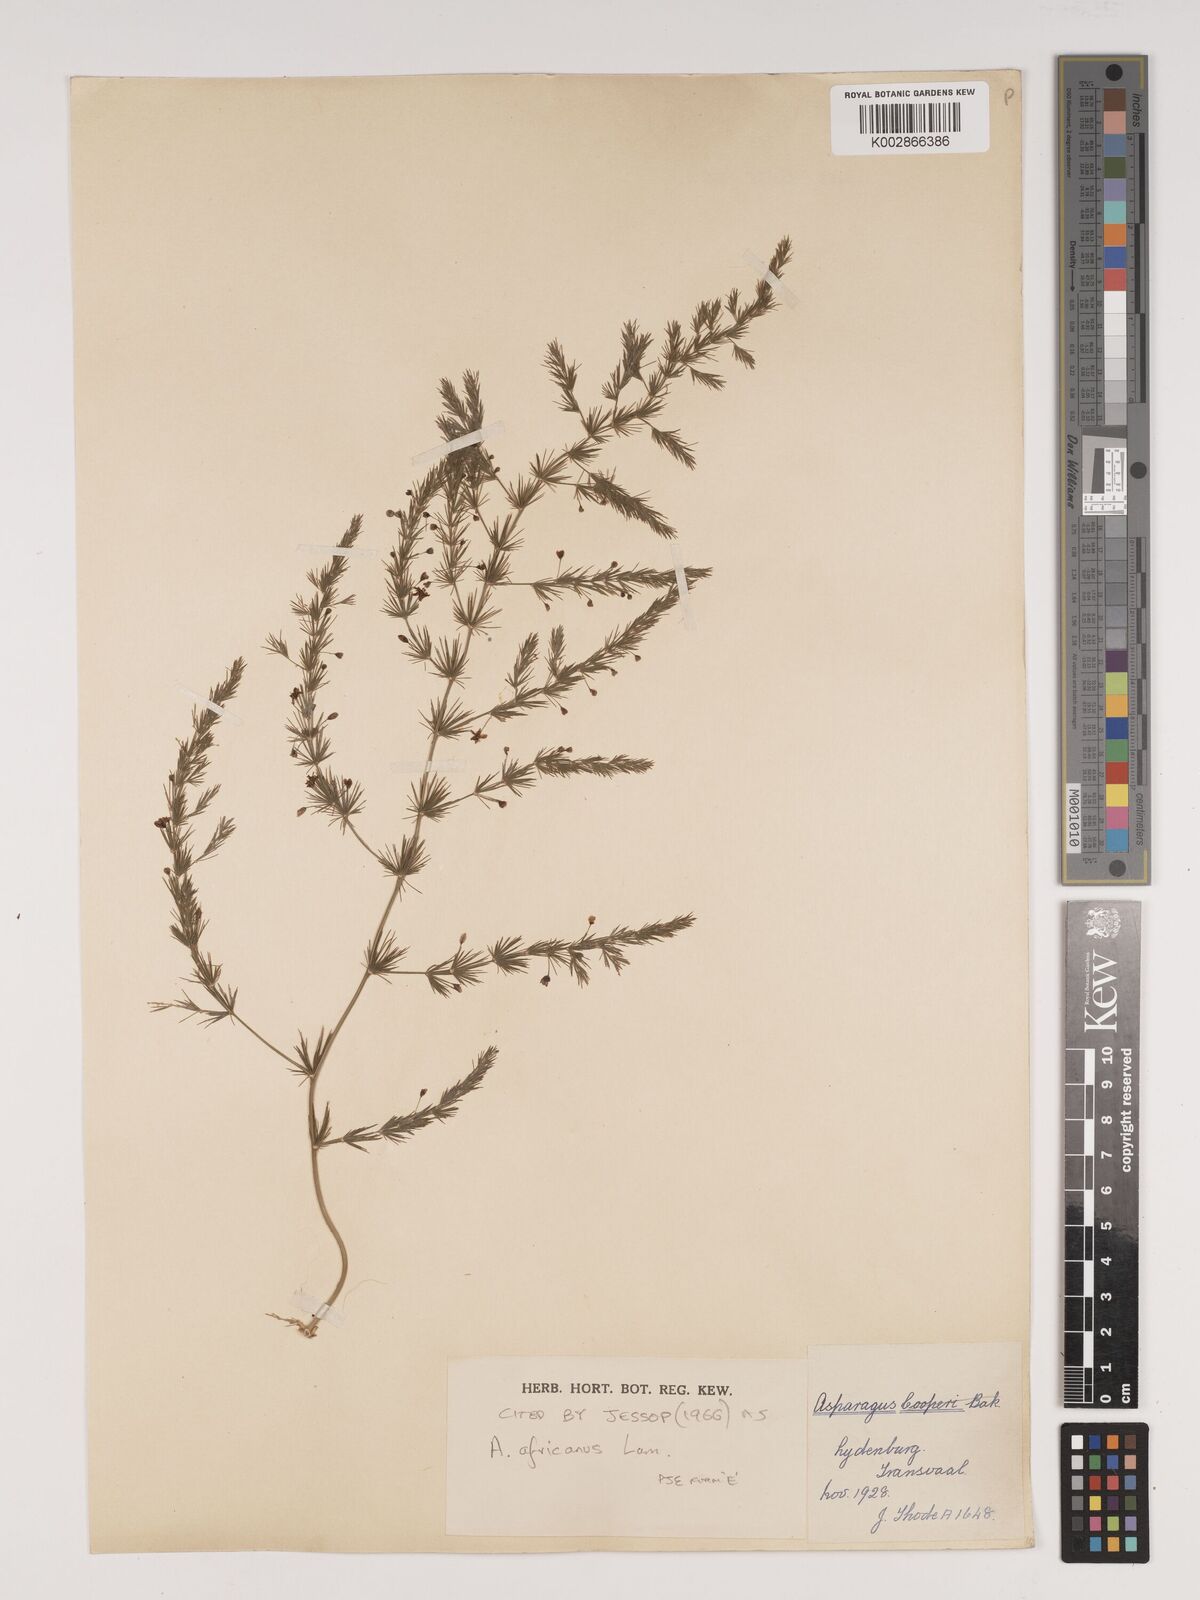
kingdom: Plantae
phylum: Tracheophyta
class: Liliopsida
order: Asparagales
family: Asparagaceae
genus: Asparagus
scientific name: Asparagus africanus
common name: Asparagus-fern
